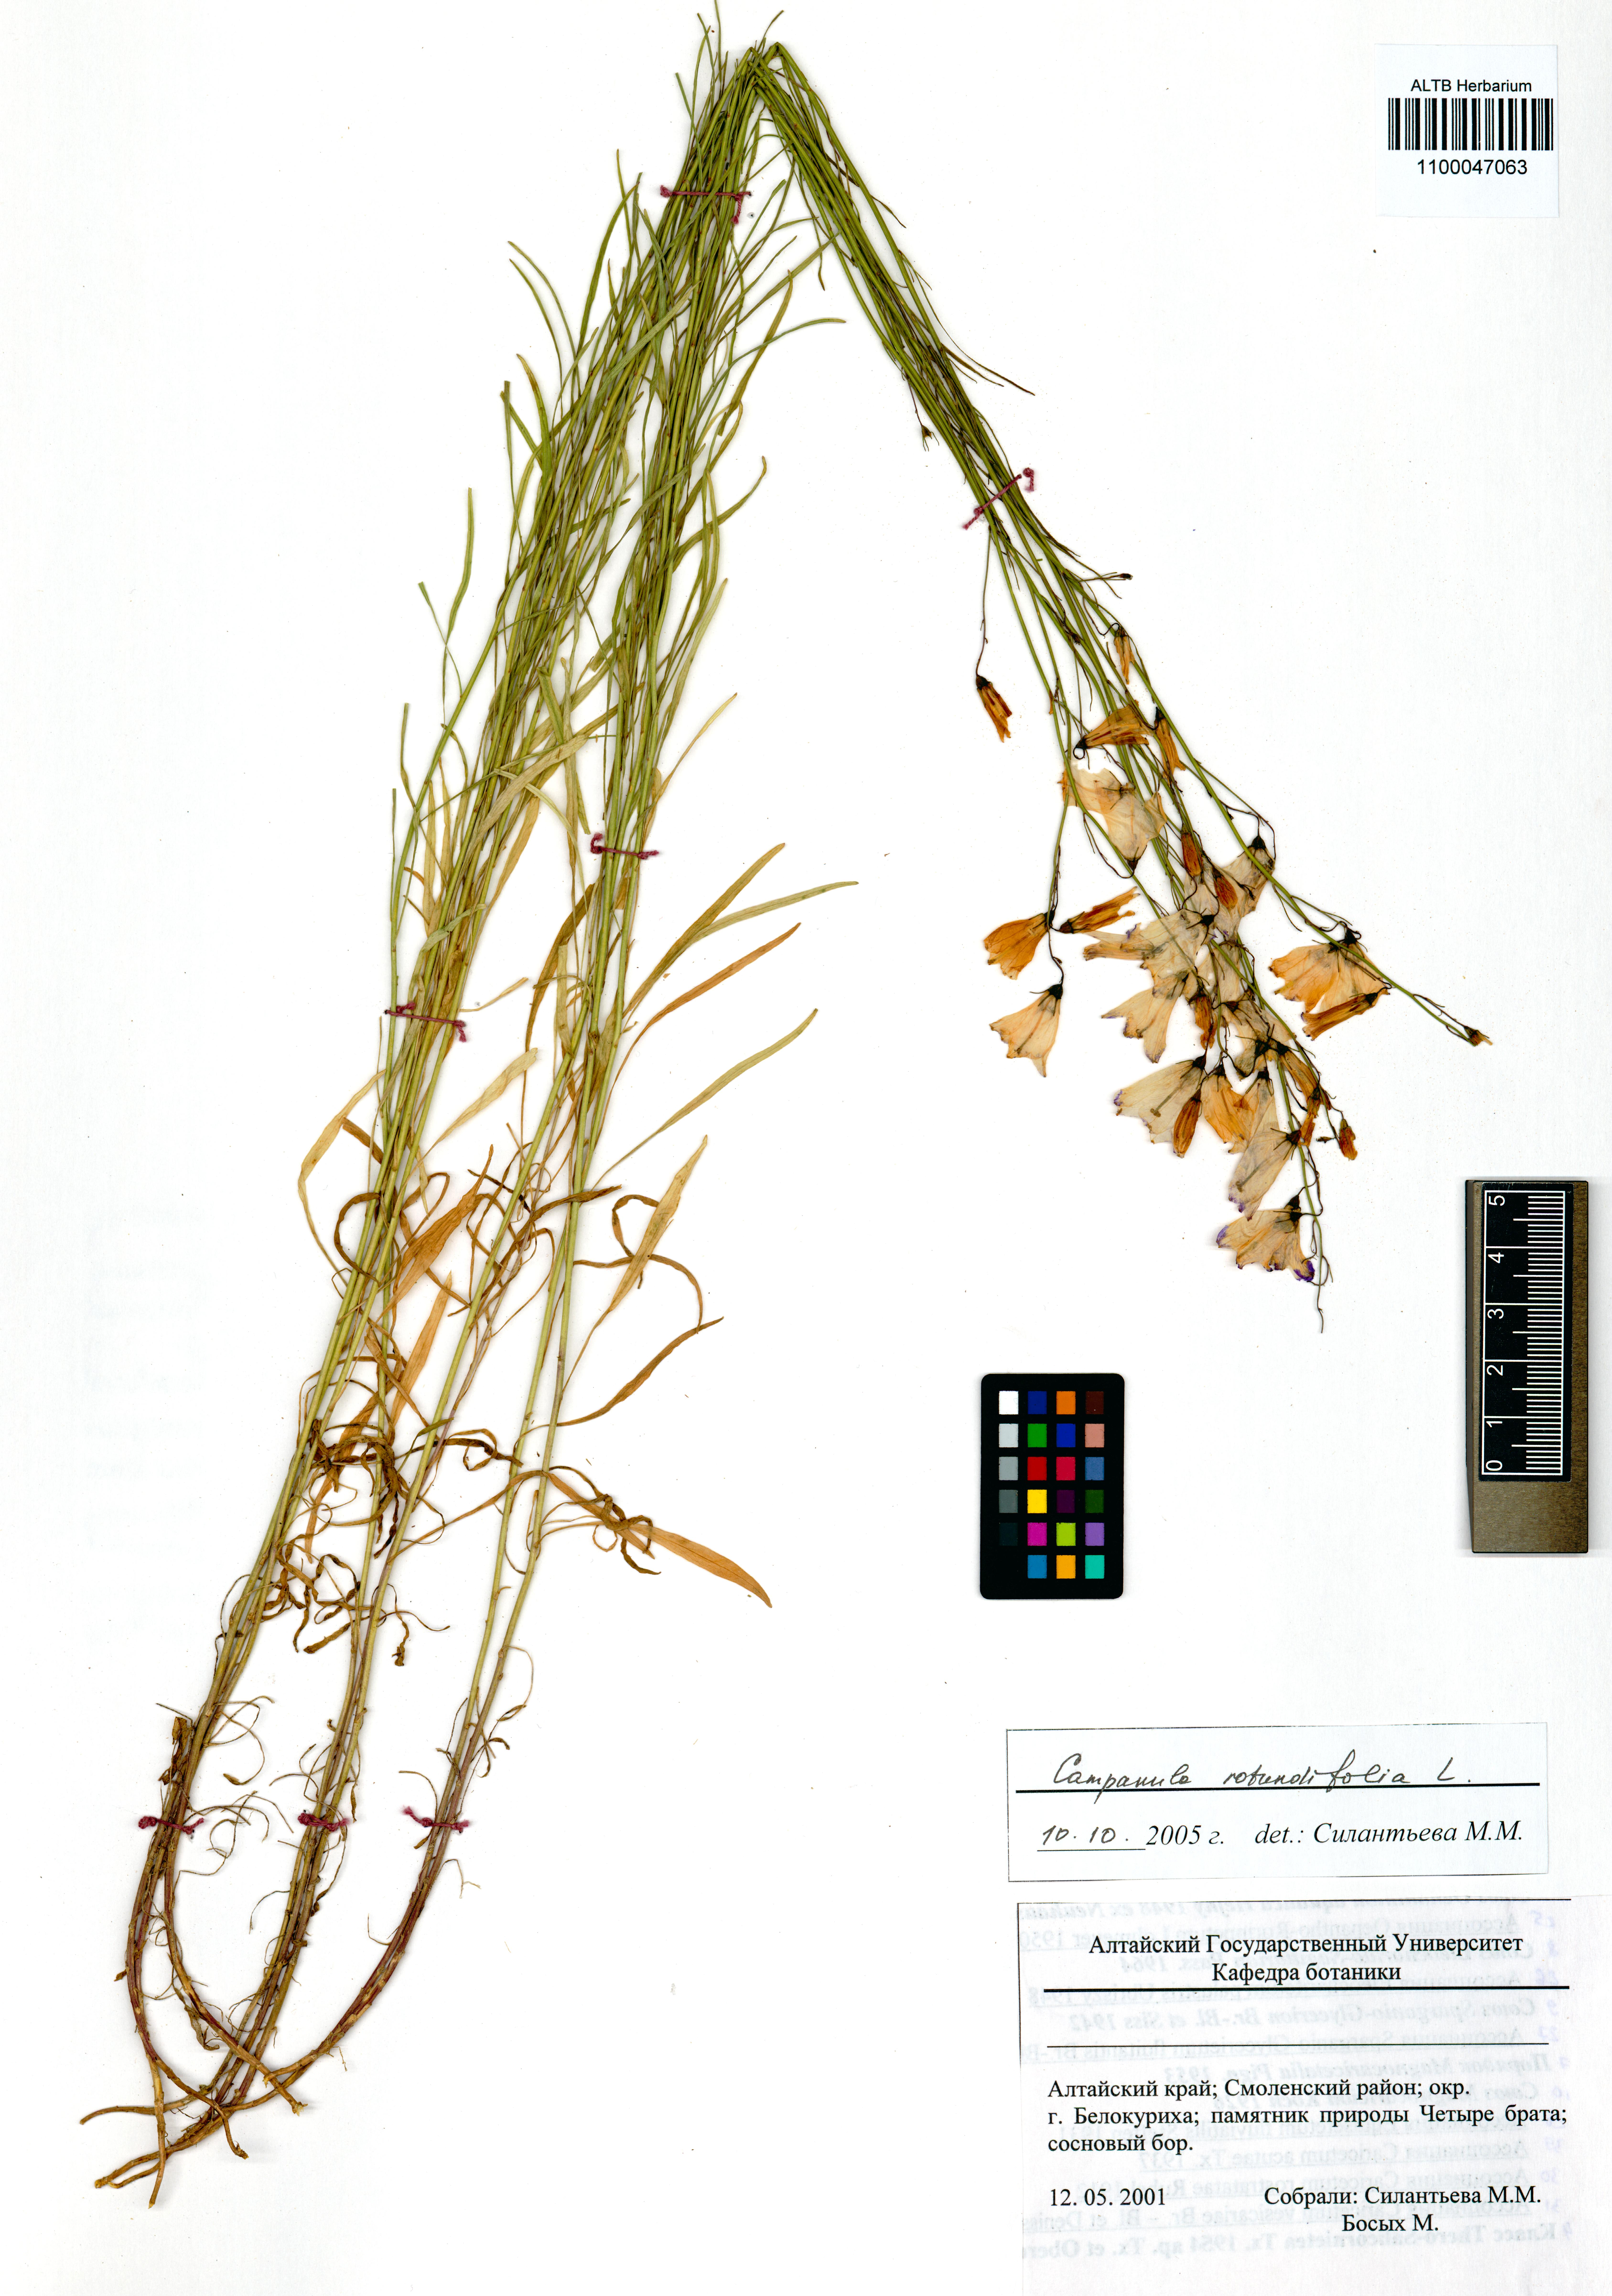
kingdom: Plantae
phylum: Tracheophyta
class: Magnoliopsida
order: Asterales
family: Campanulaceae
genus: Campanula
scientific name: Campanula rotundifolia
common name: Harebell
